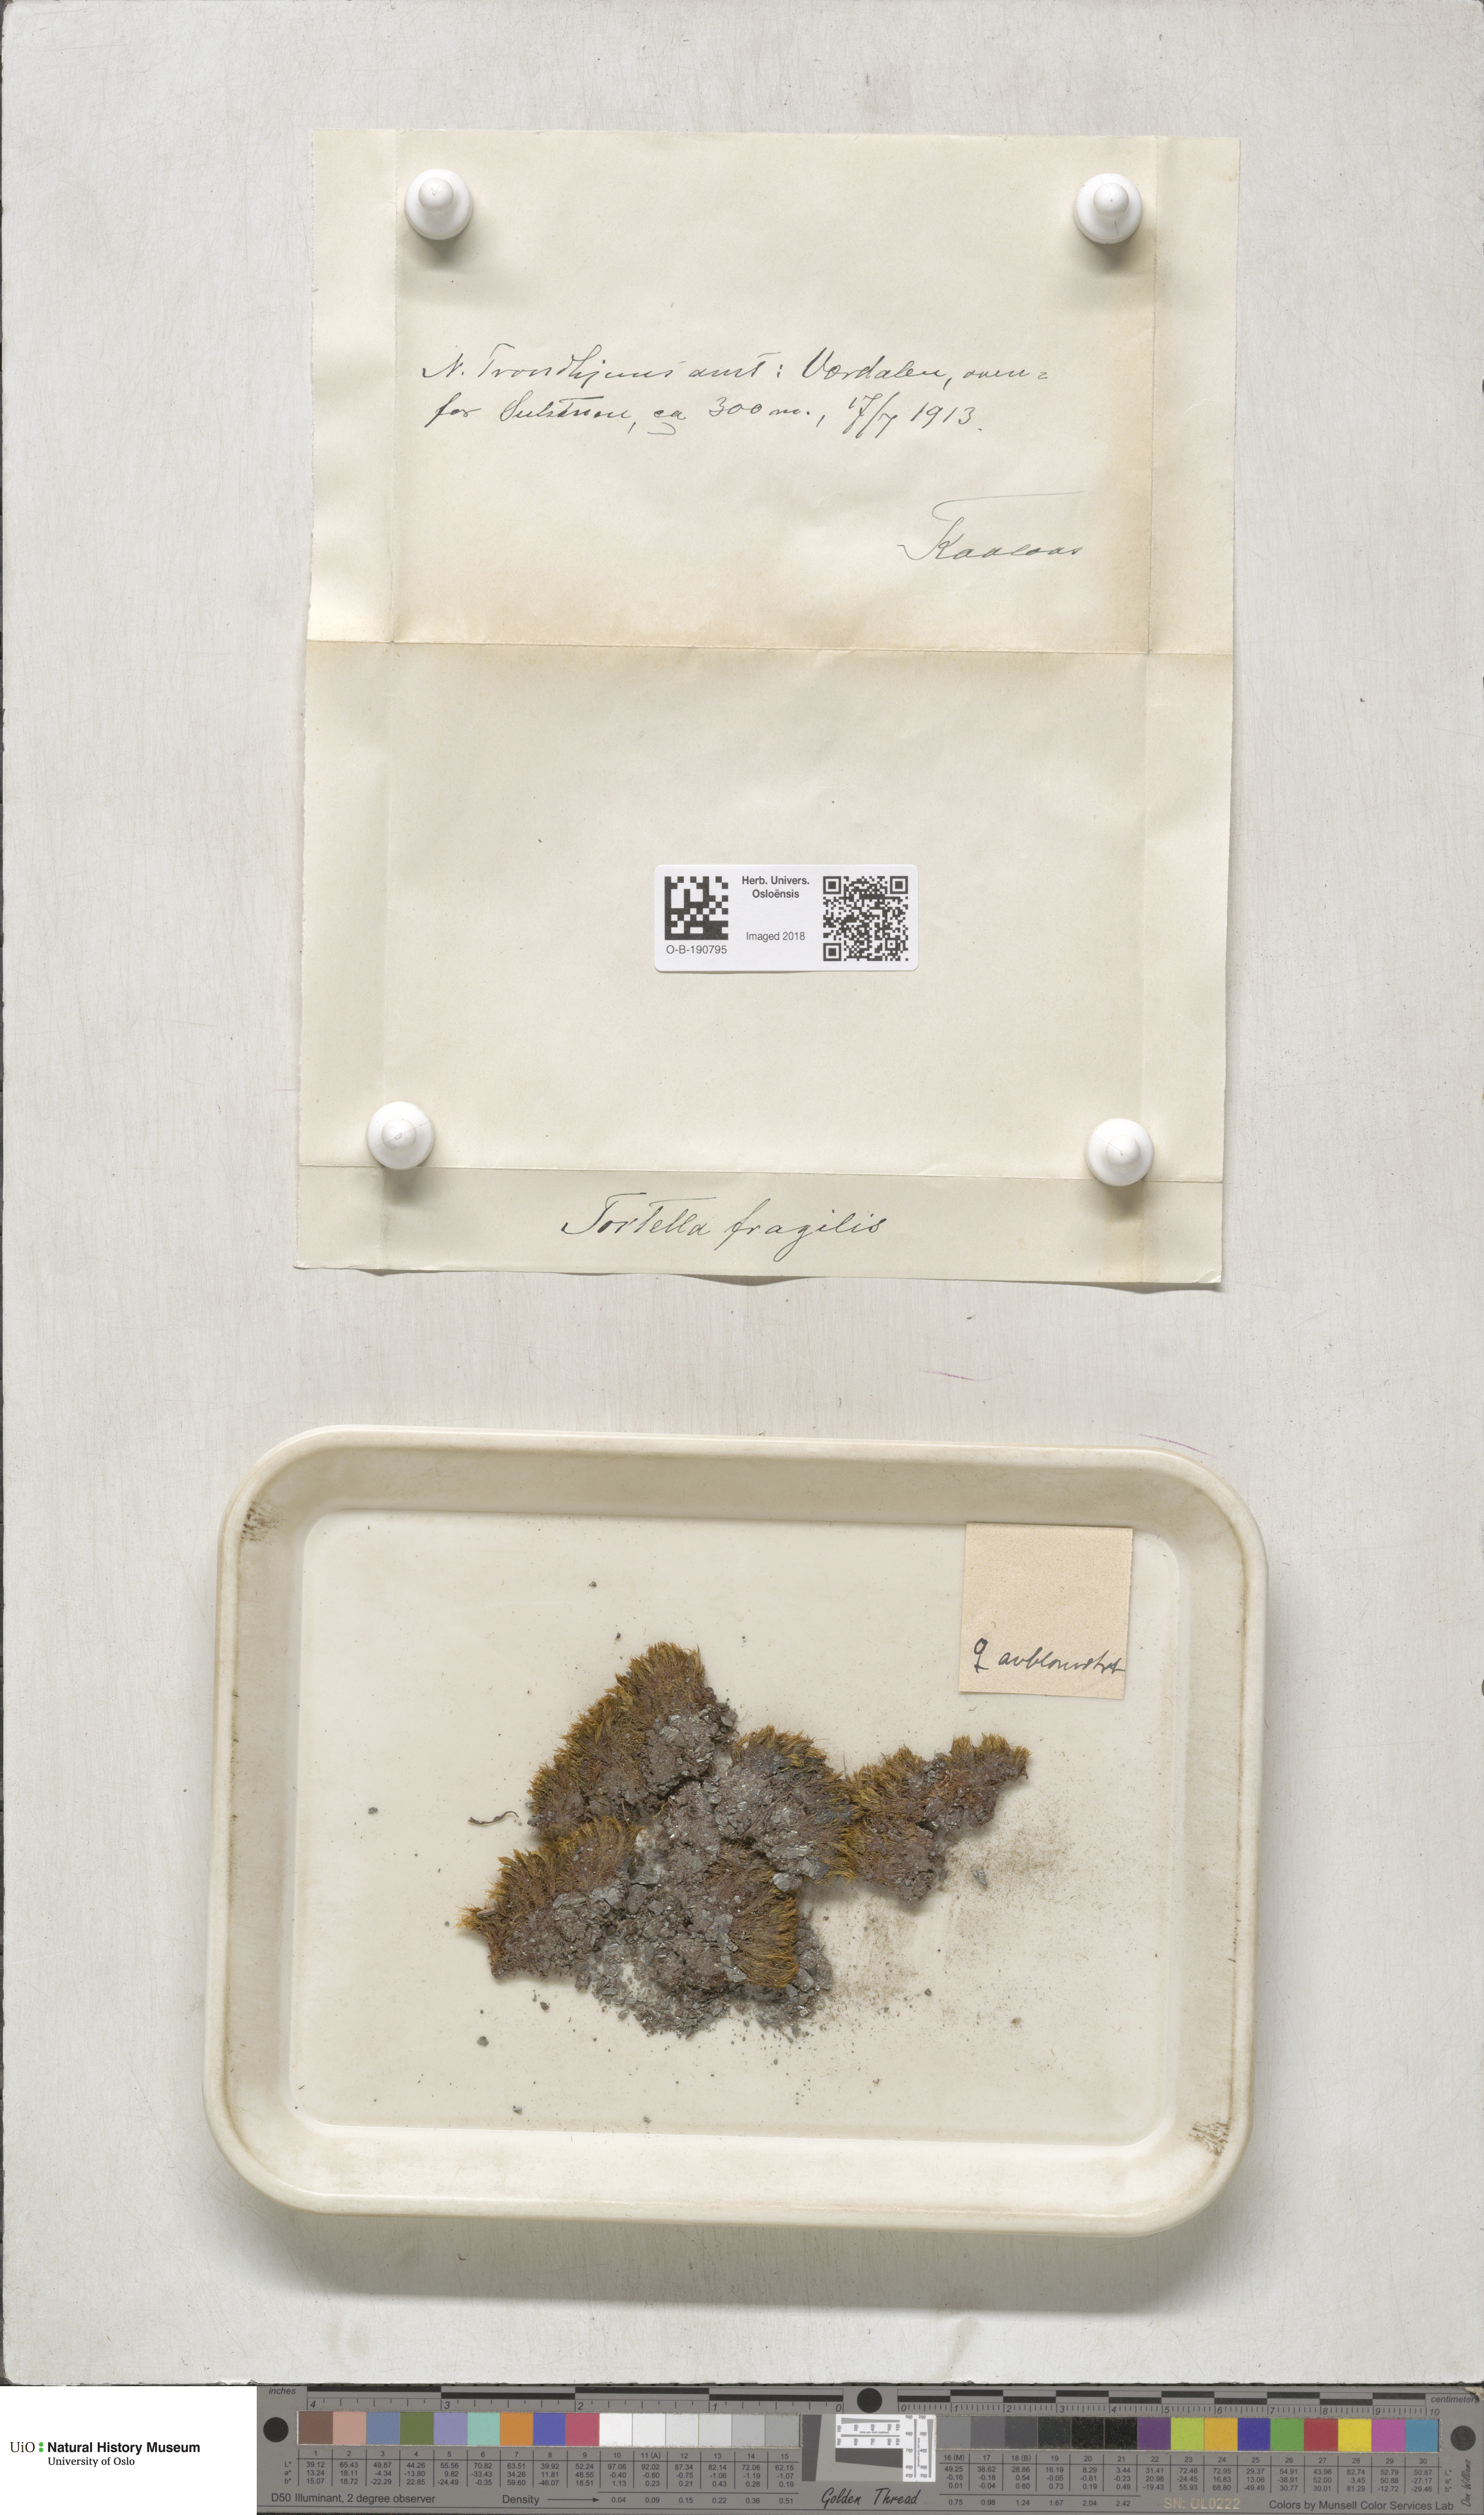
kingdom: Plantae
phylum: Bryophyta
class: Bryopsida
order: Pottiales
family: Pottiaceae
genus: Tortella
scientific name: Tortella fragilis
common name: Fragile twisted moss
